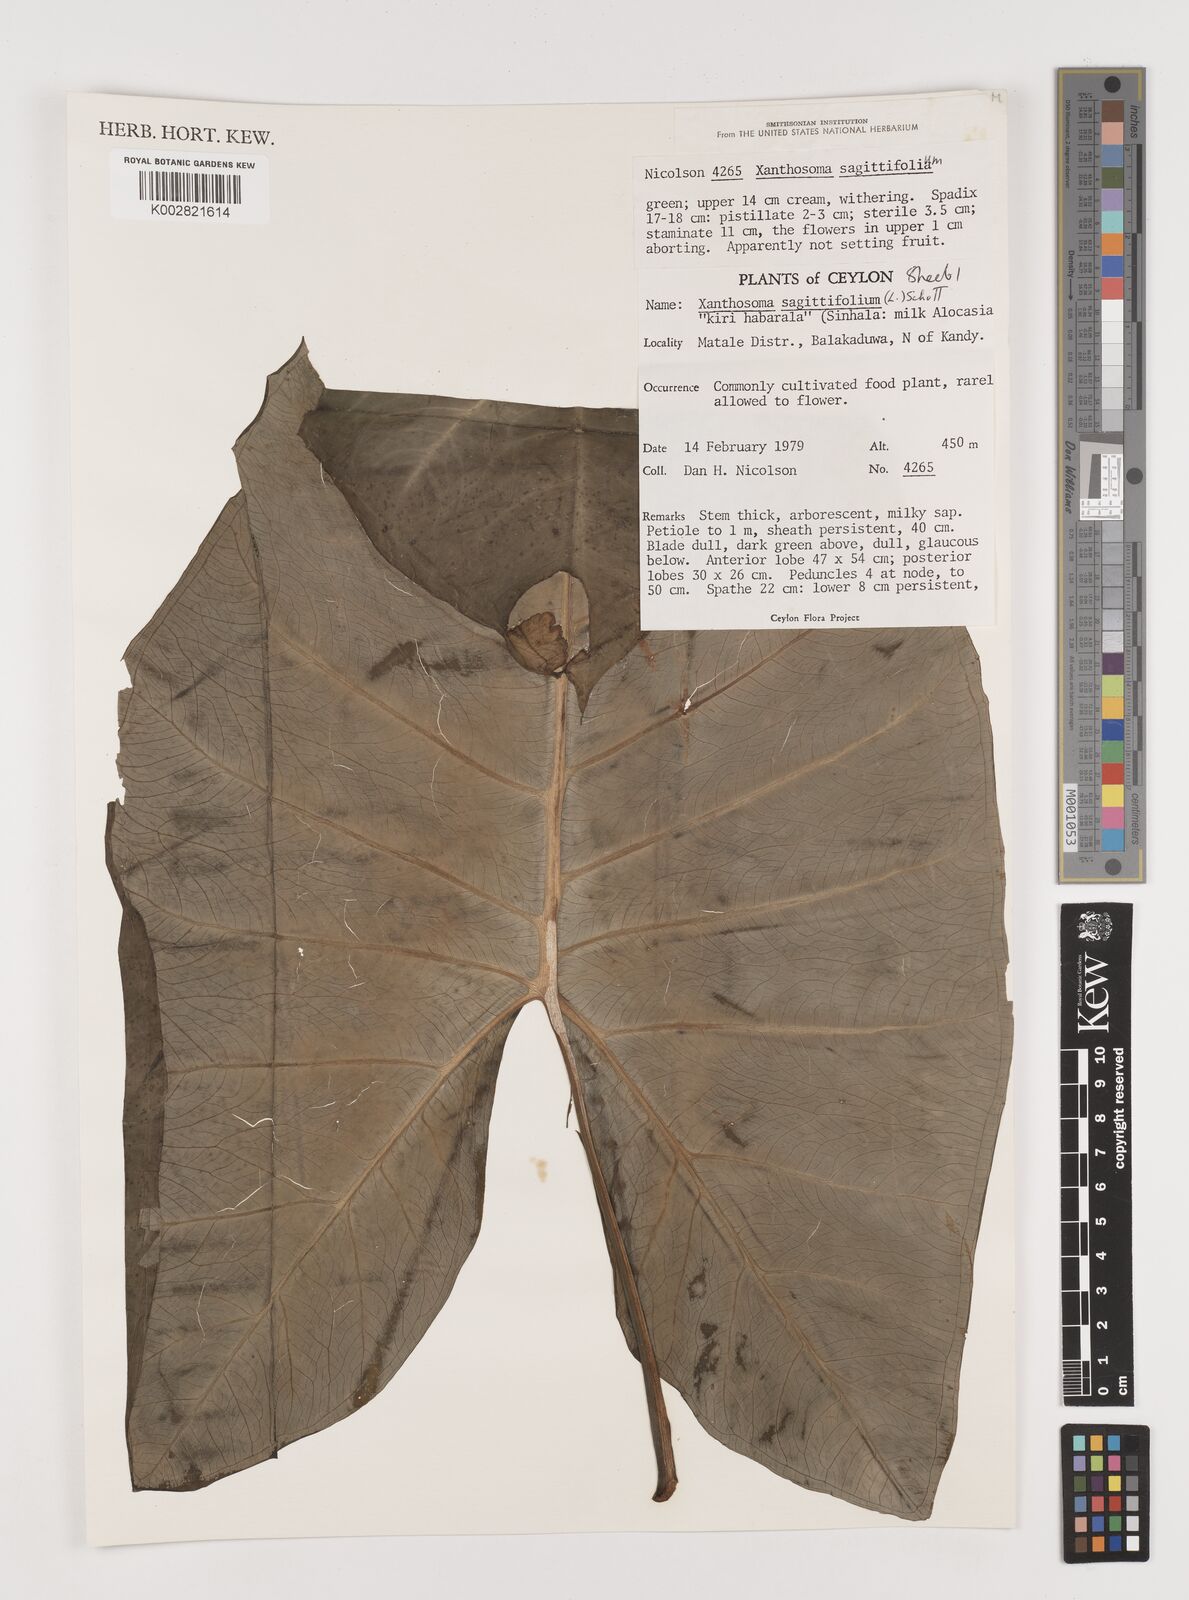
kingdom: Plantae
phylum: Tracheophyta
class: Liliopsida
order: Alismatales
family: Araceae
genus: Xanthosoma
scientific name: Xanthosoma sagittifolium
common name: Arrowleaf elephant's ear
